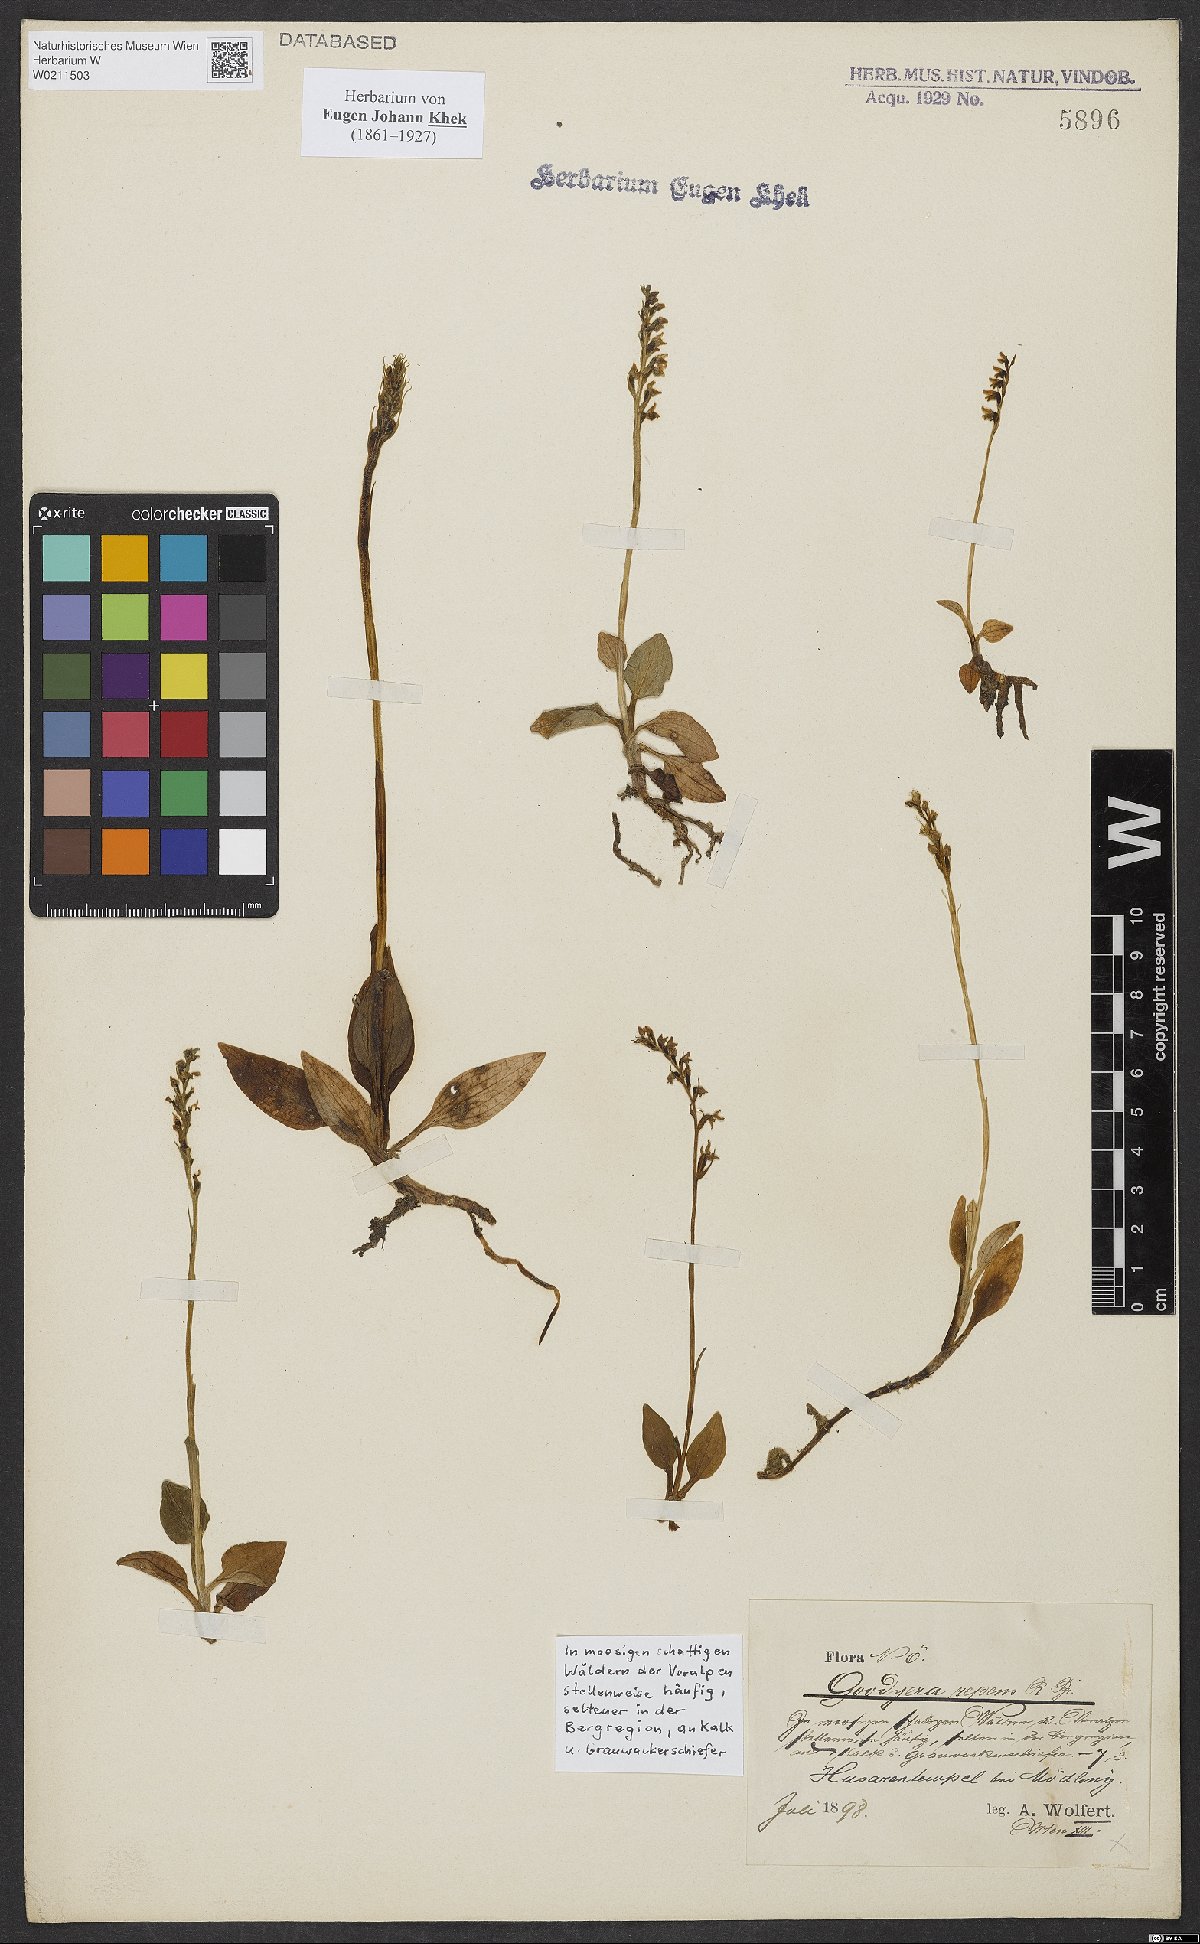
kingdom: Plantae
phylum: Tracheophyta
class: Liliopsida
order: Asparagales
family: Orchidaceae
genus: Goodyera
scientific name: Goodyera repens
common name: Creeping lady's-tresses
